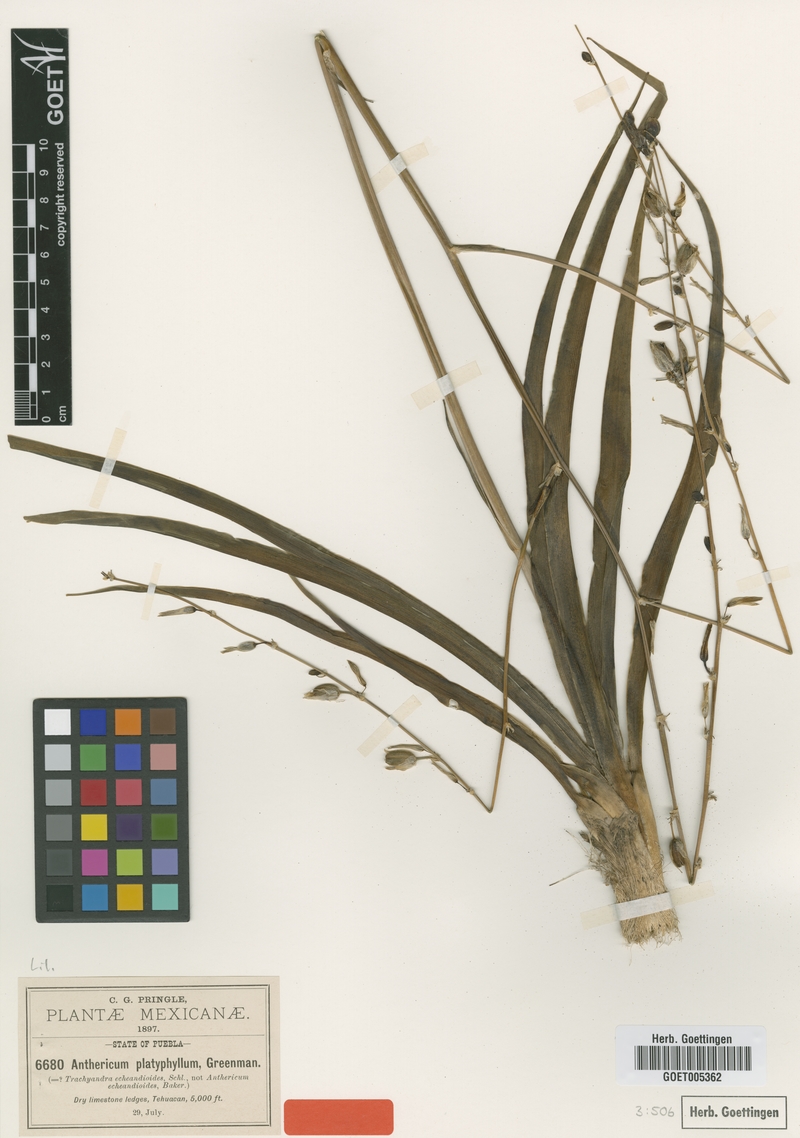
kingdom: Plantae
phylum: Tracheophyta
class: Liliopsida
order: Asparagales
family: Asparagaceae
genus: Echeandia
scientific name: Echeandia platyphylla
